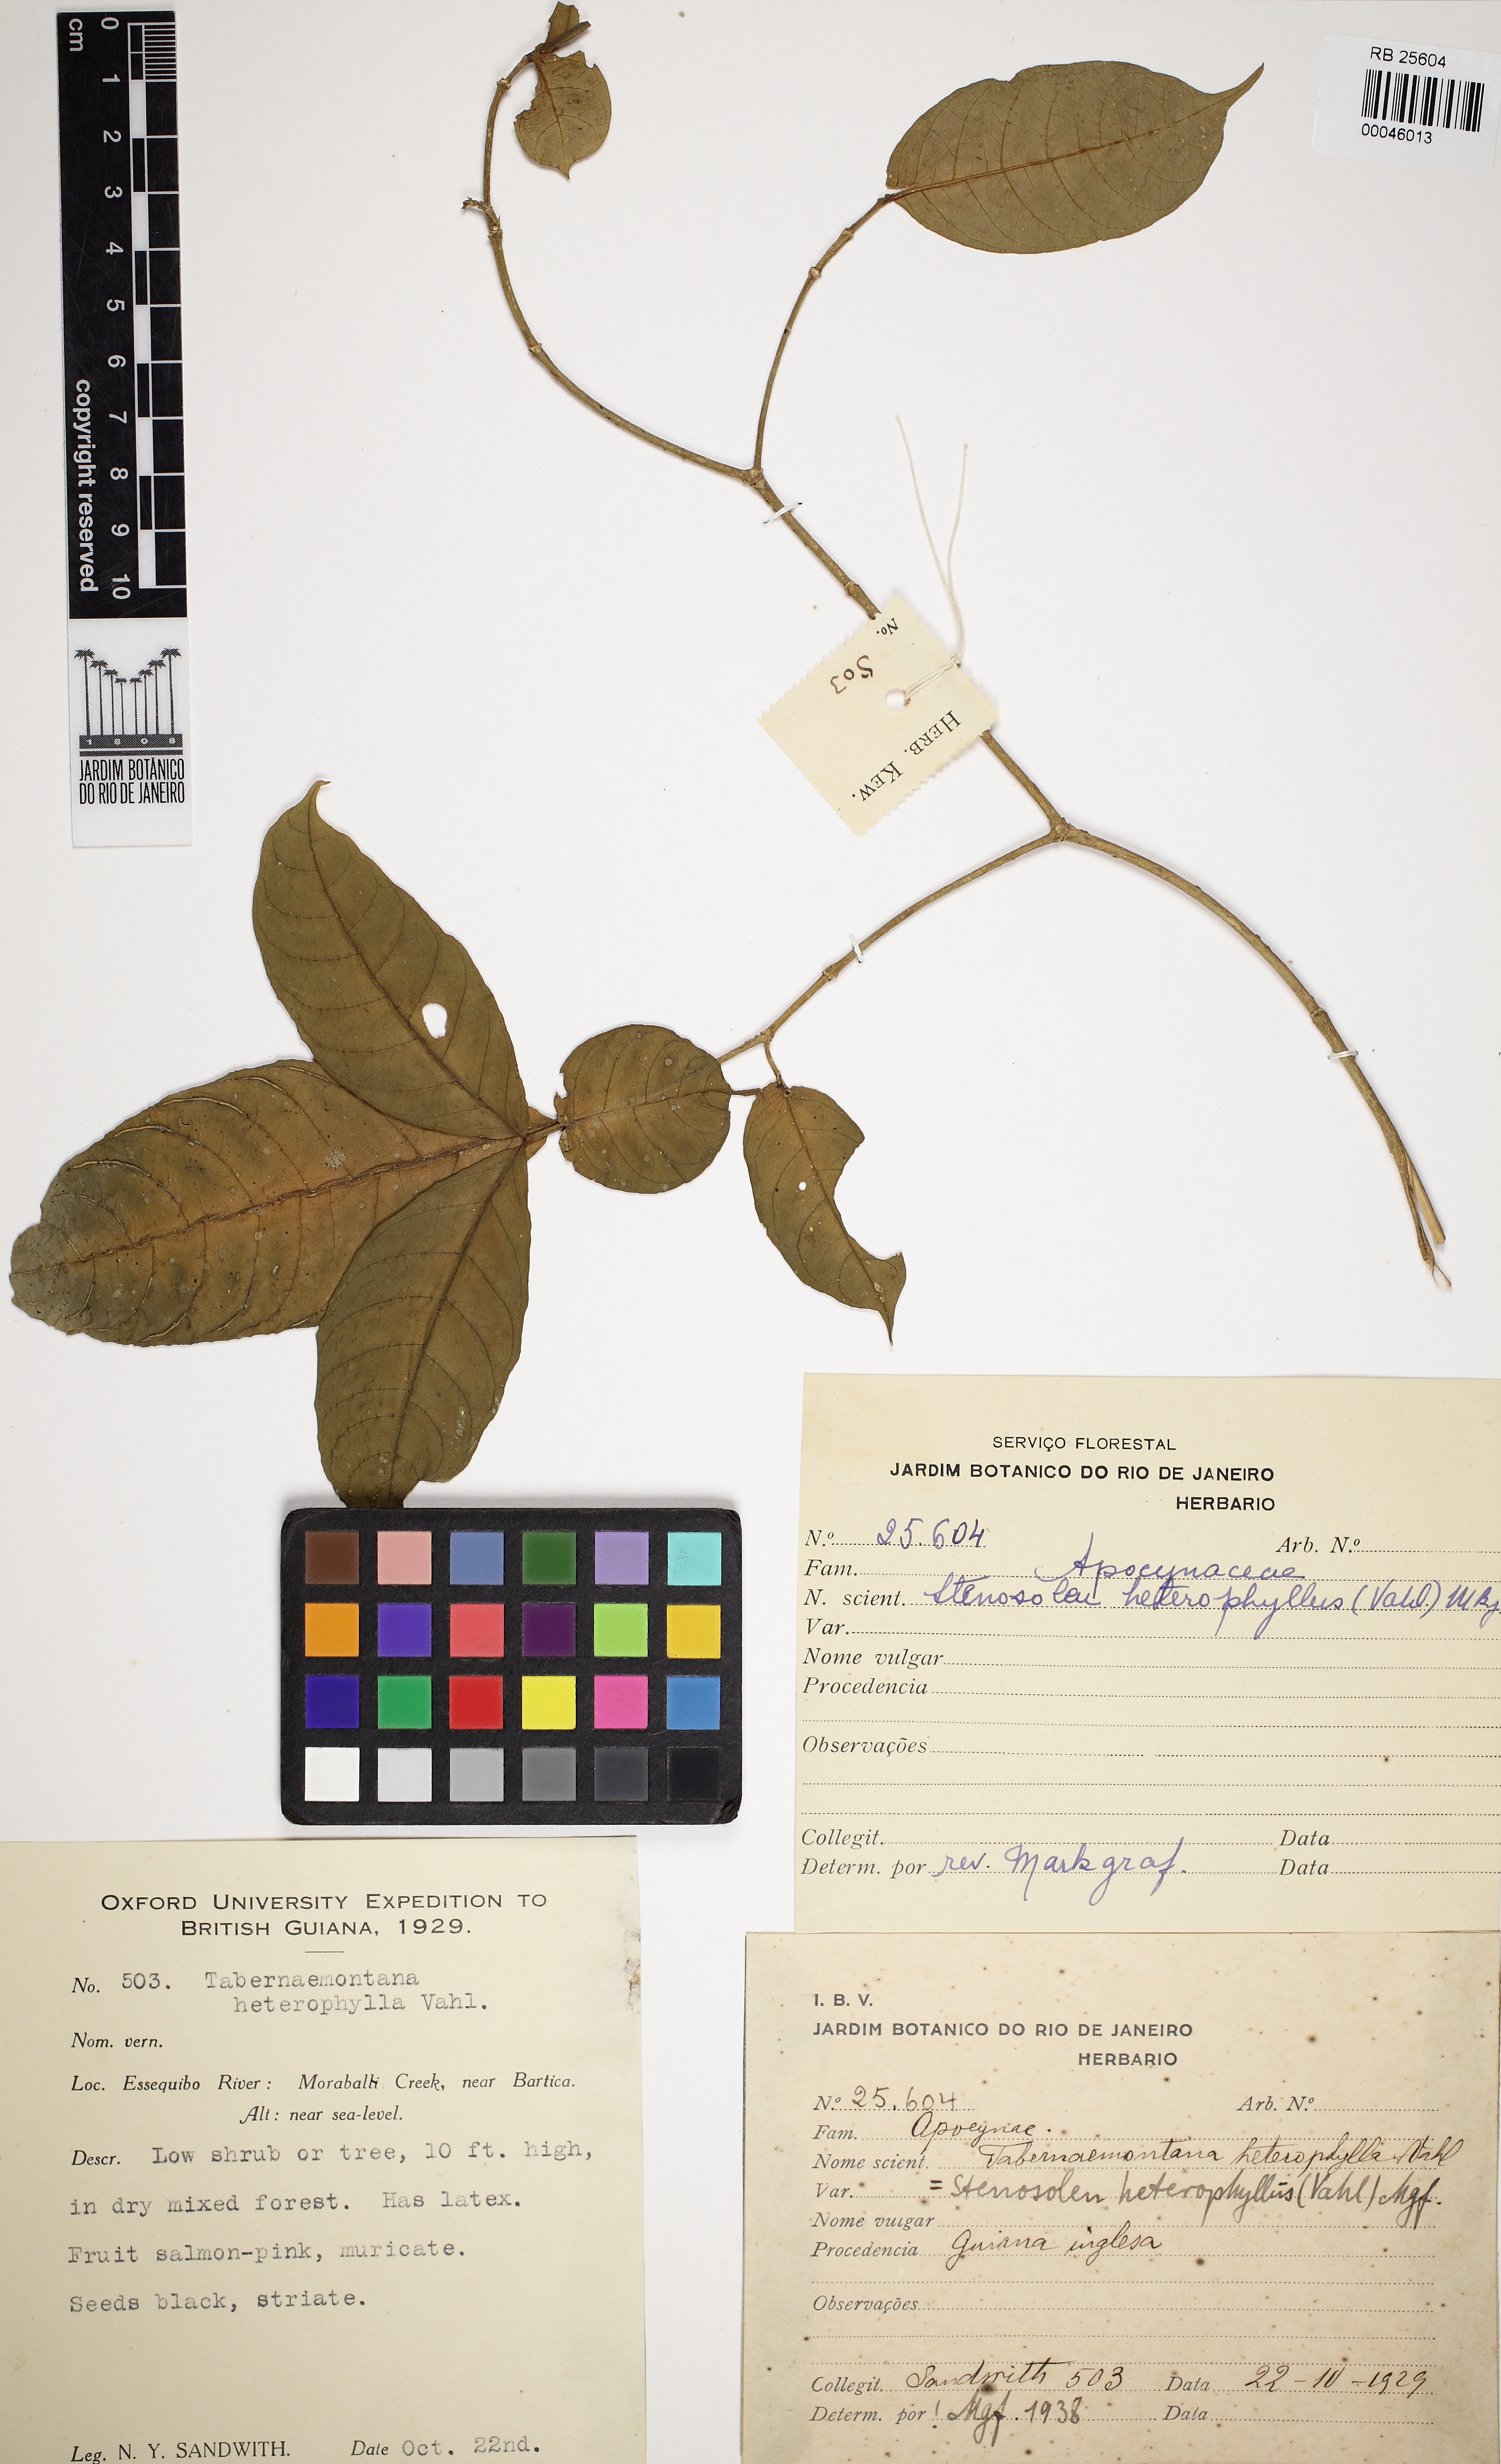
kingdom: Plantae
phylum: Tracheophyta
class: Magnoliopsida
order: Gentianales
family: Apocynaceae
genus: Tabernaemontana
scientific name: Tabernaemontana heterophylla
